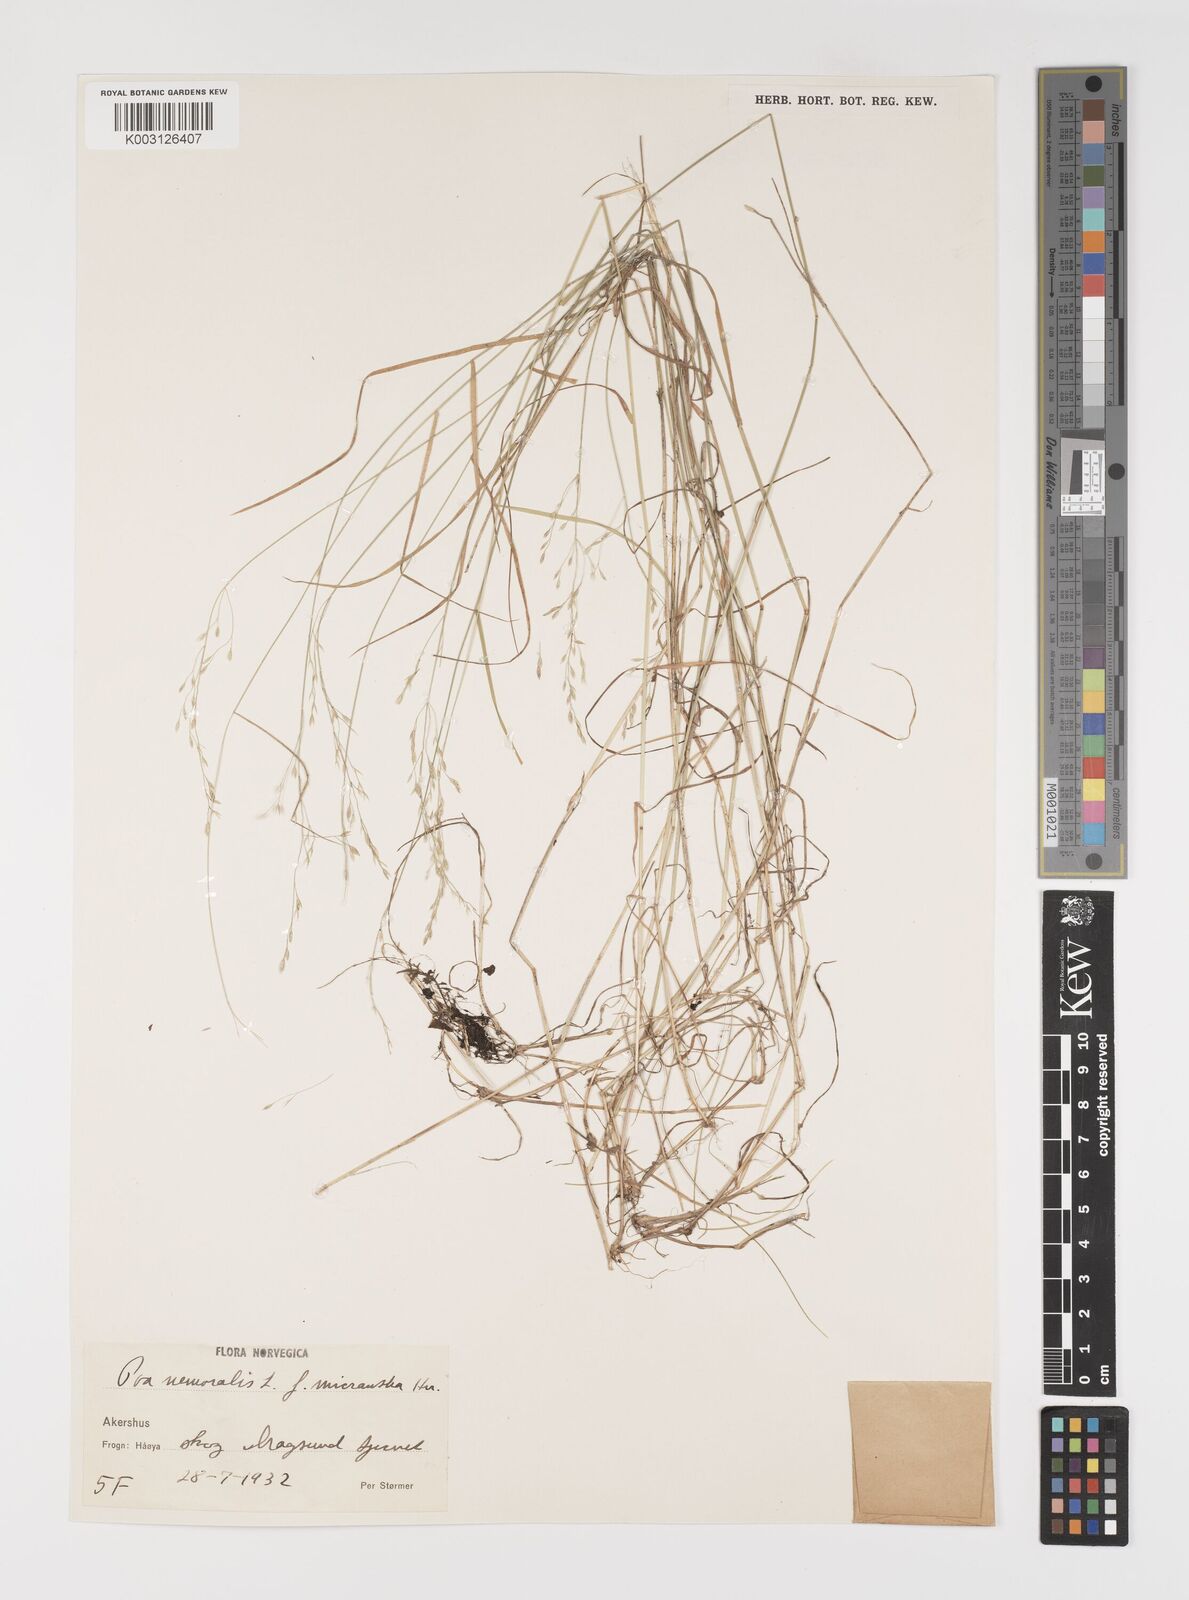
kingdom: Plantae
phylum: Tracheophyta
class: Liliopsida
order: Poales
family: Poaceae
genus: Poa
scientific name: Poa nemoralis
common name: Wood bluegrass
